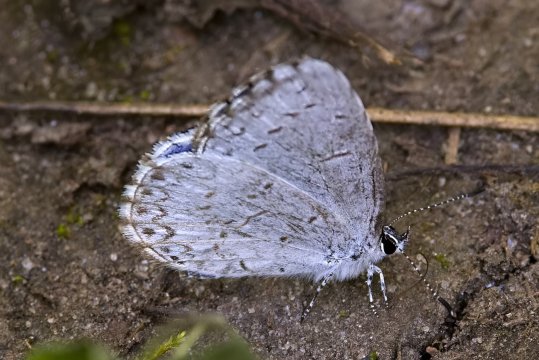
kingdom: Animalia
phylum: Arthropoda
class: Insecta
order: Lepidoptera
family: Lycaenidae
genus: Celastrina
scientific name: Celastrina lucia
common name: Northern Spring Azure
